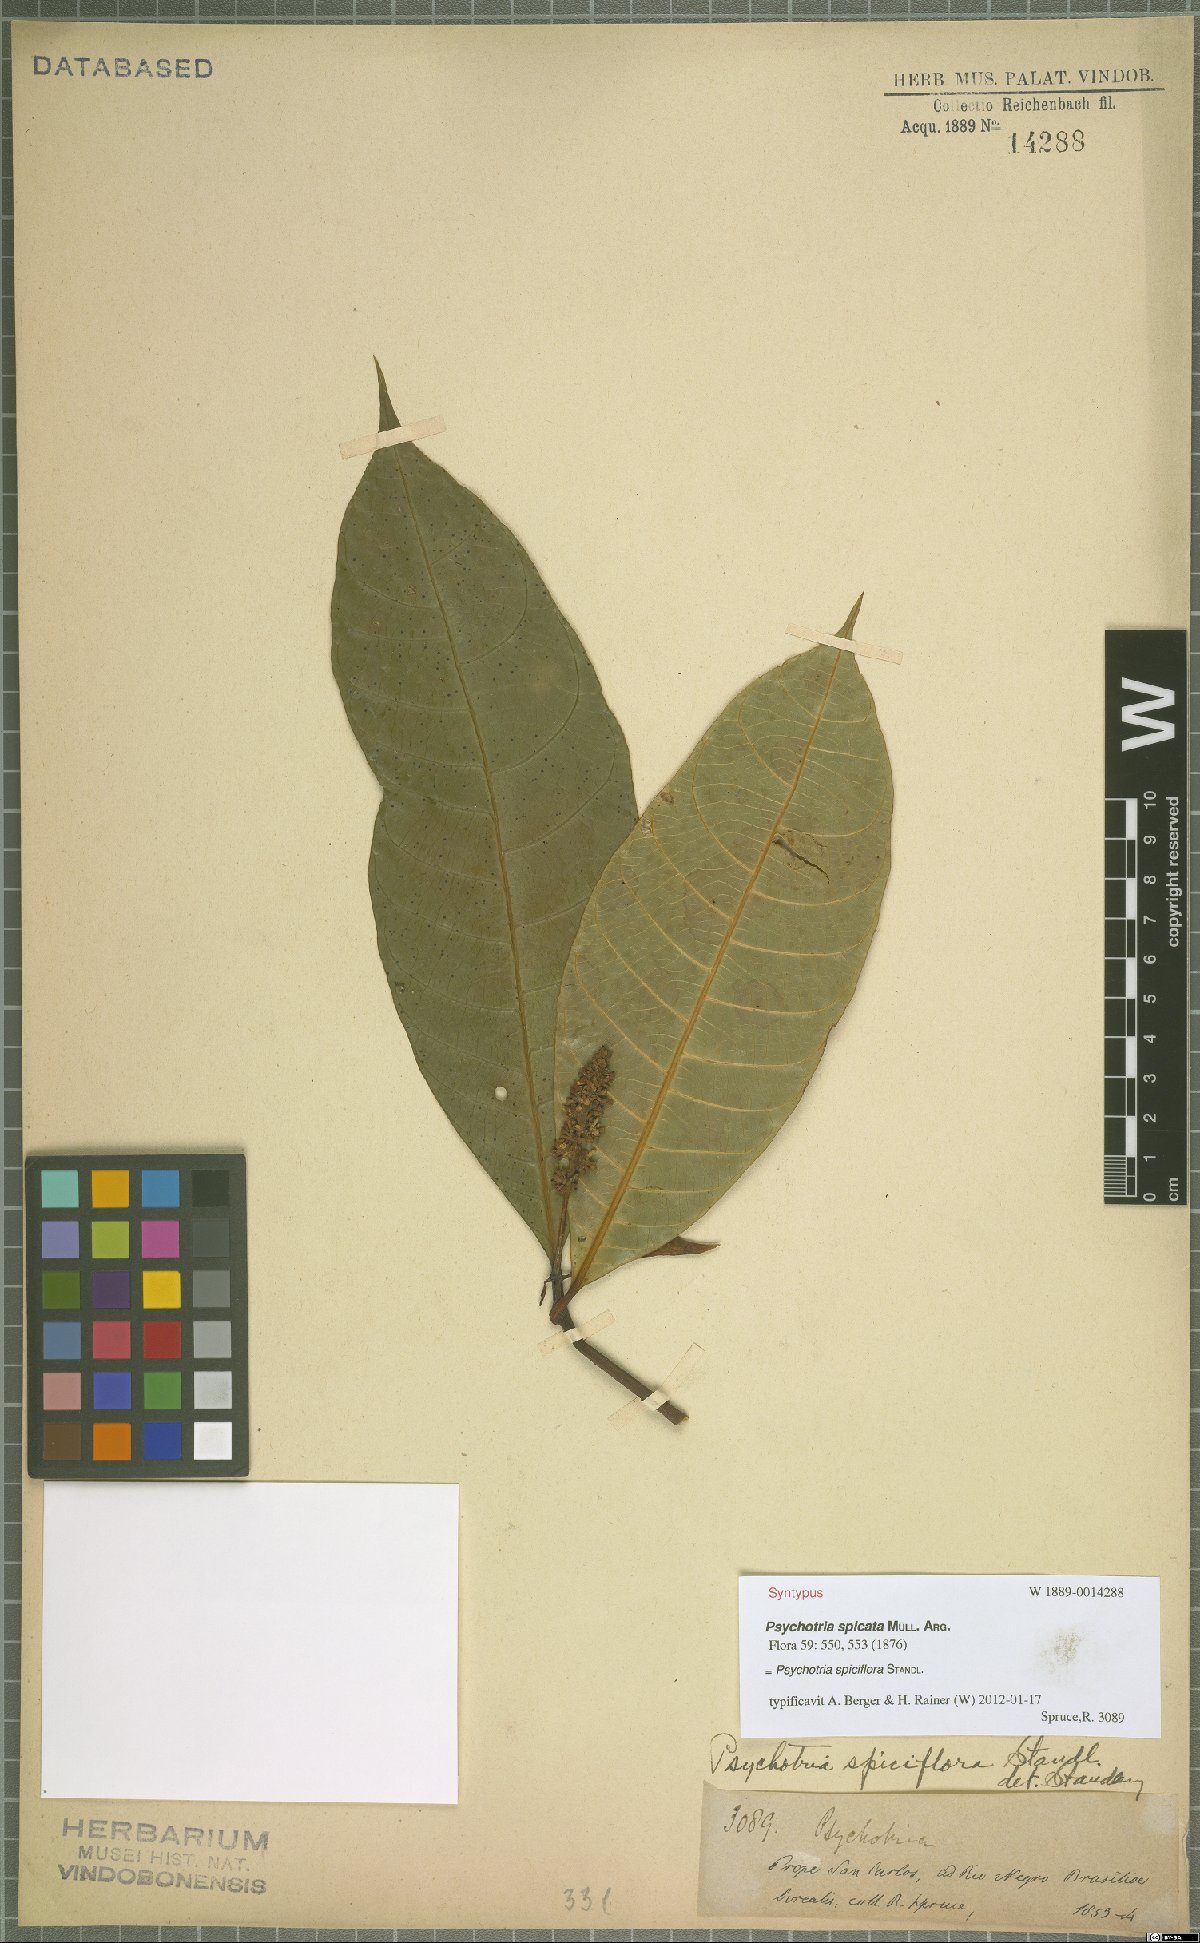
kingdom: Plantae
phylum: Tracheophyta
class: Magnoliopsida
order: Gentianales
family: Rubiaceae
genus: Palicourea
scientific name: Palicourea spicata
